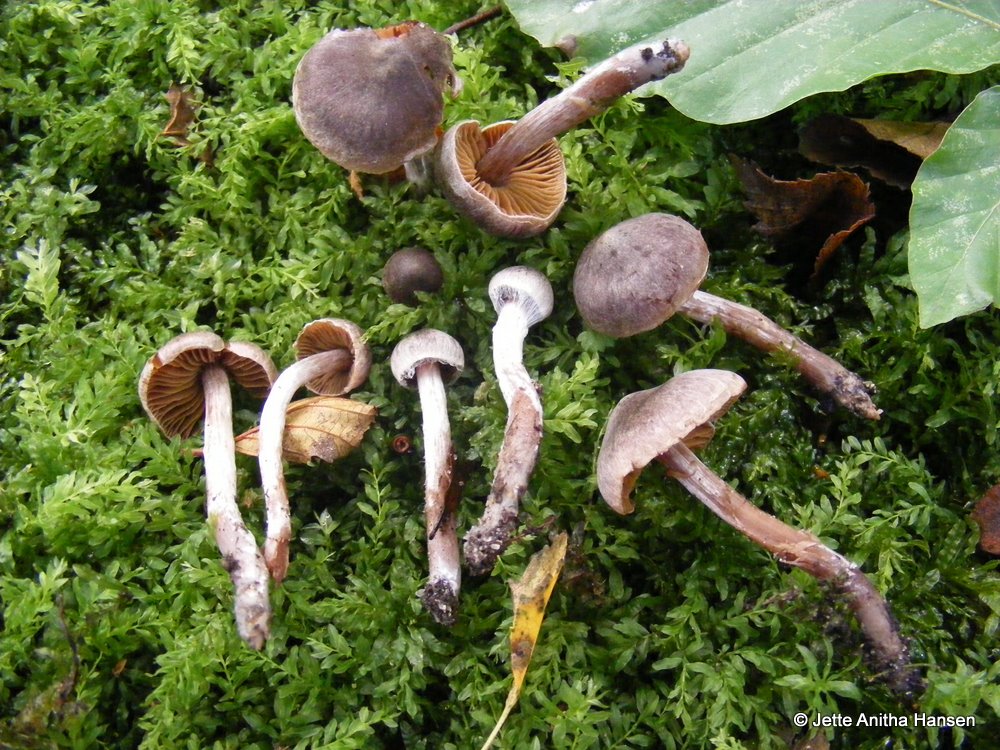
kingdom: Fungi
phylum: Basidiomycota
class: Agaricomycetes
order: Agaricales
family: Cortinariaceae
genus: Cortinarius
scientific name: Cortinarius umbrinolens
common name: mørk slørhat
